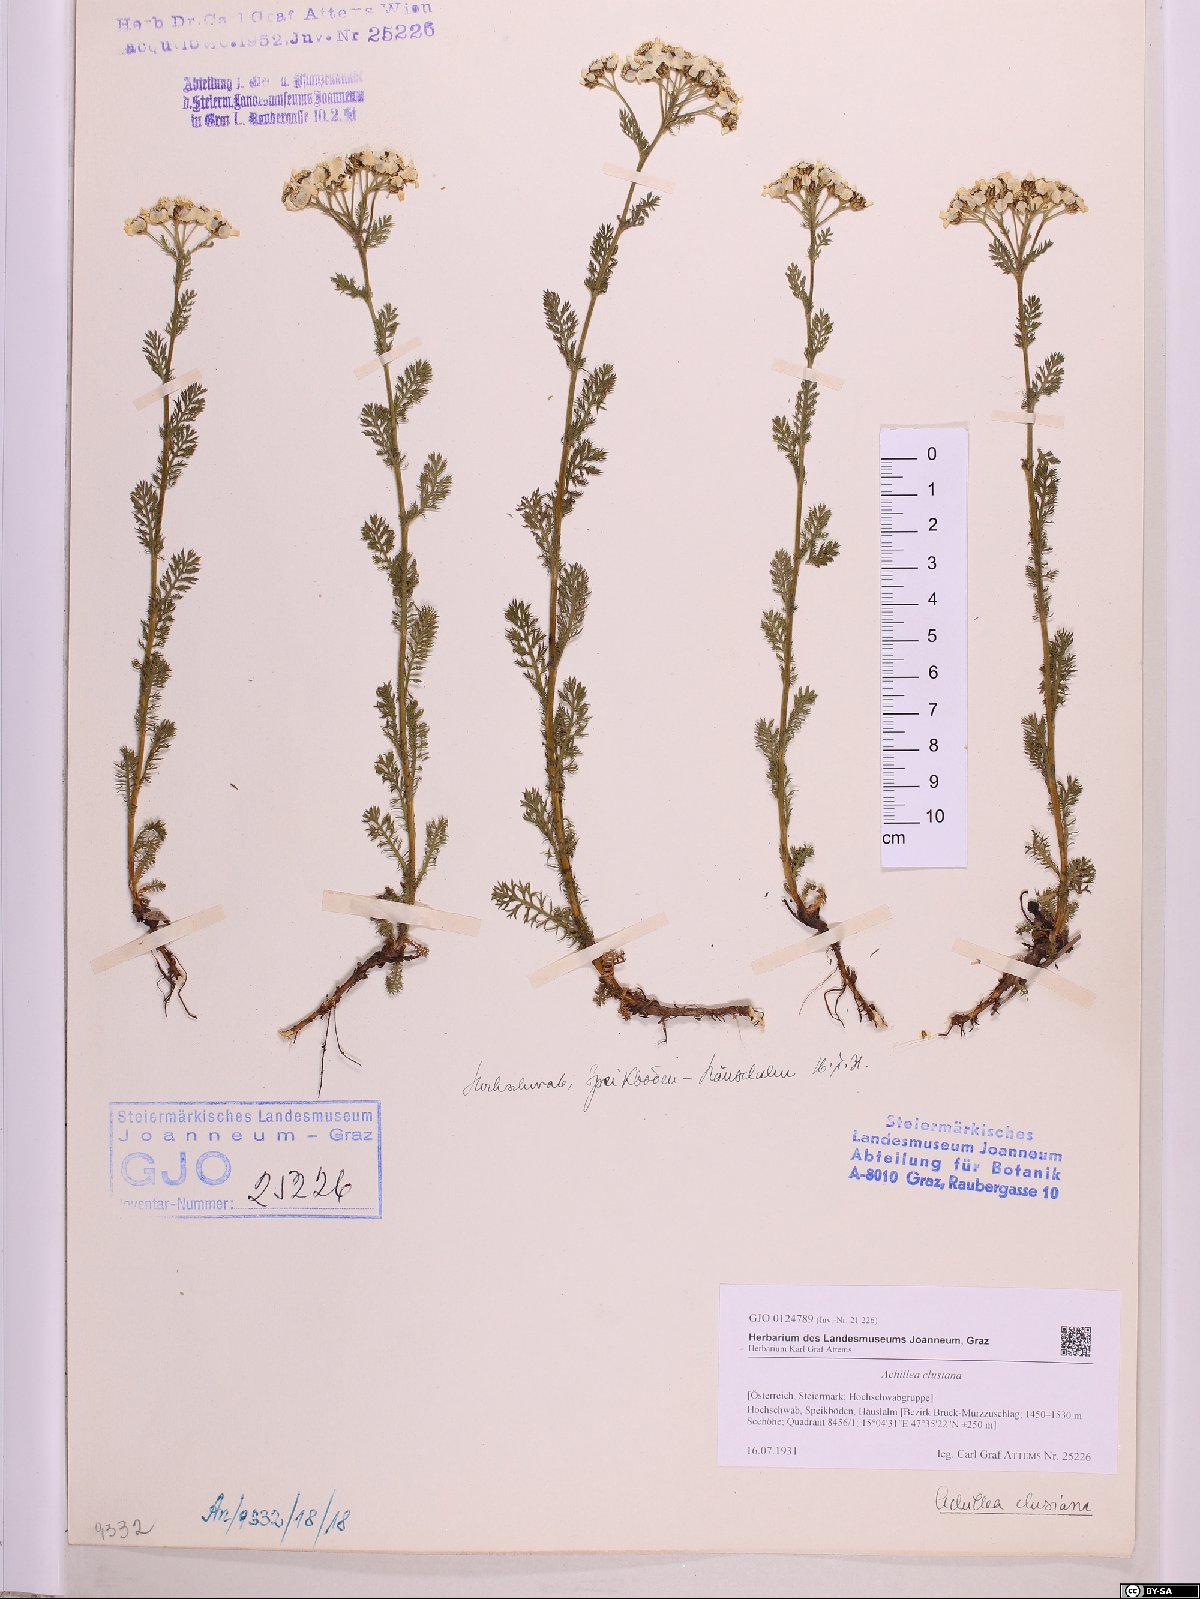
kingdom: Plantae
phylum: Tracheophyta
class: Magnoliopsida
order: Asterales
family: Asteraceae
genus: Achillea
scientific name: Achillea clusiana
